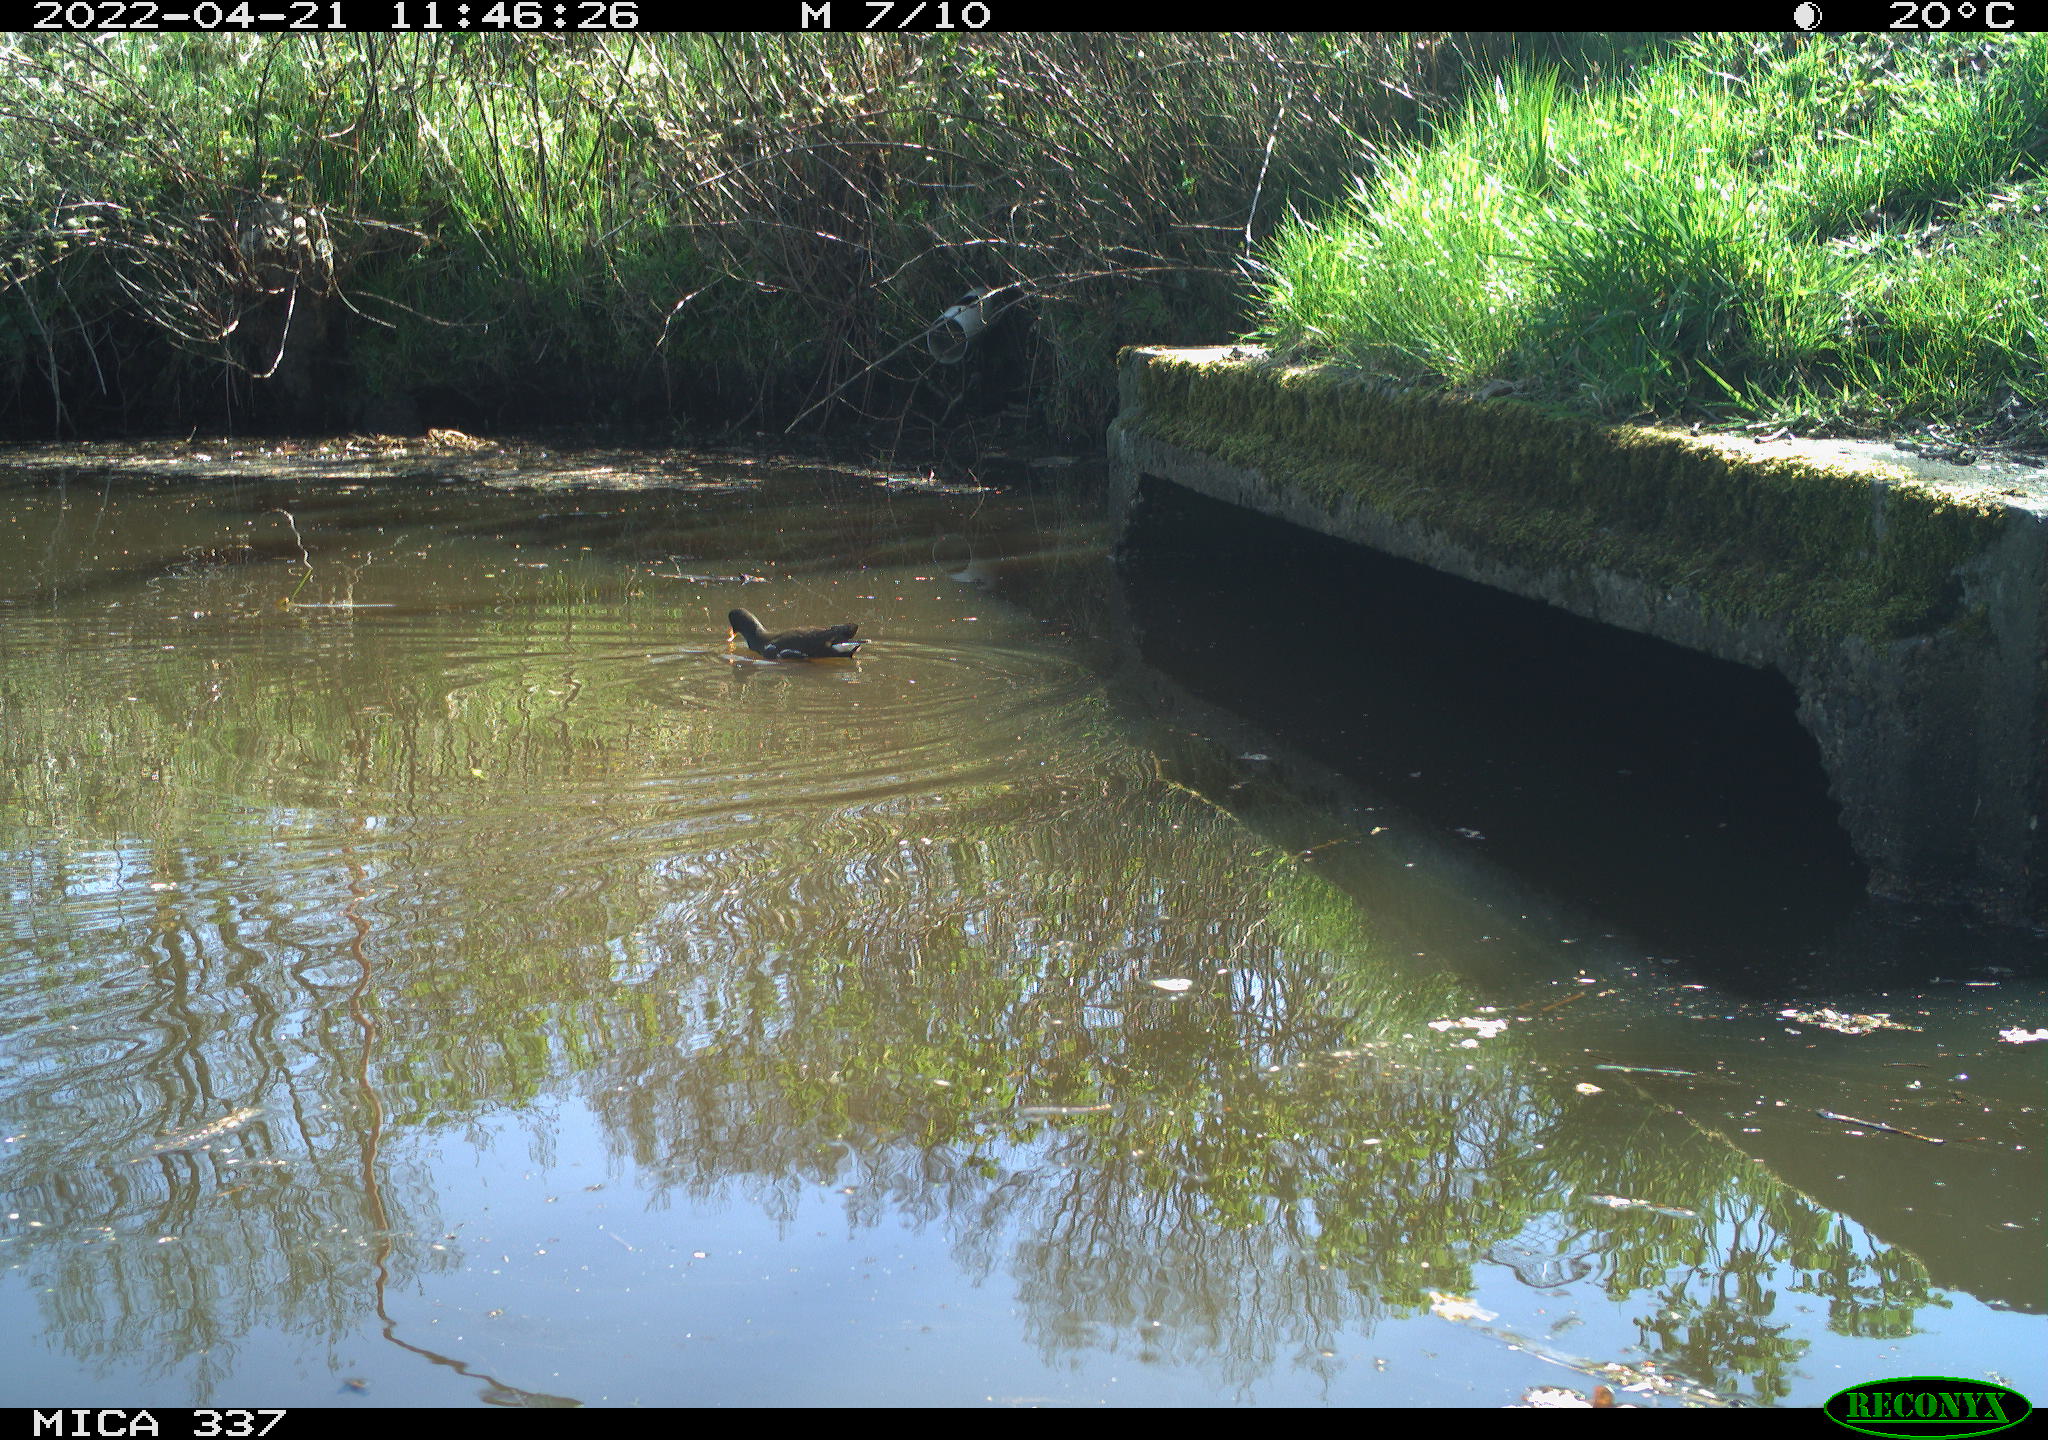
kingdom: Animalia
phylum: Chordata
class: Aves
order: Gruiformes
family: Rallidae
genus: Gallinula
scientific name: Gallinula chloropus
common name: Common moorhen
